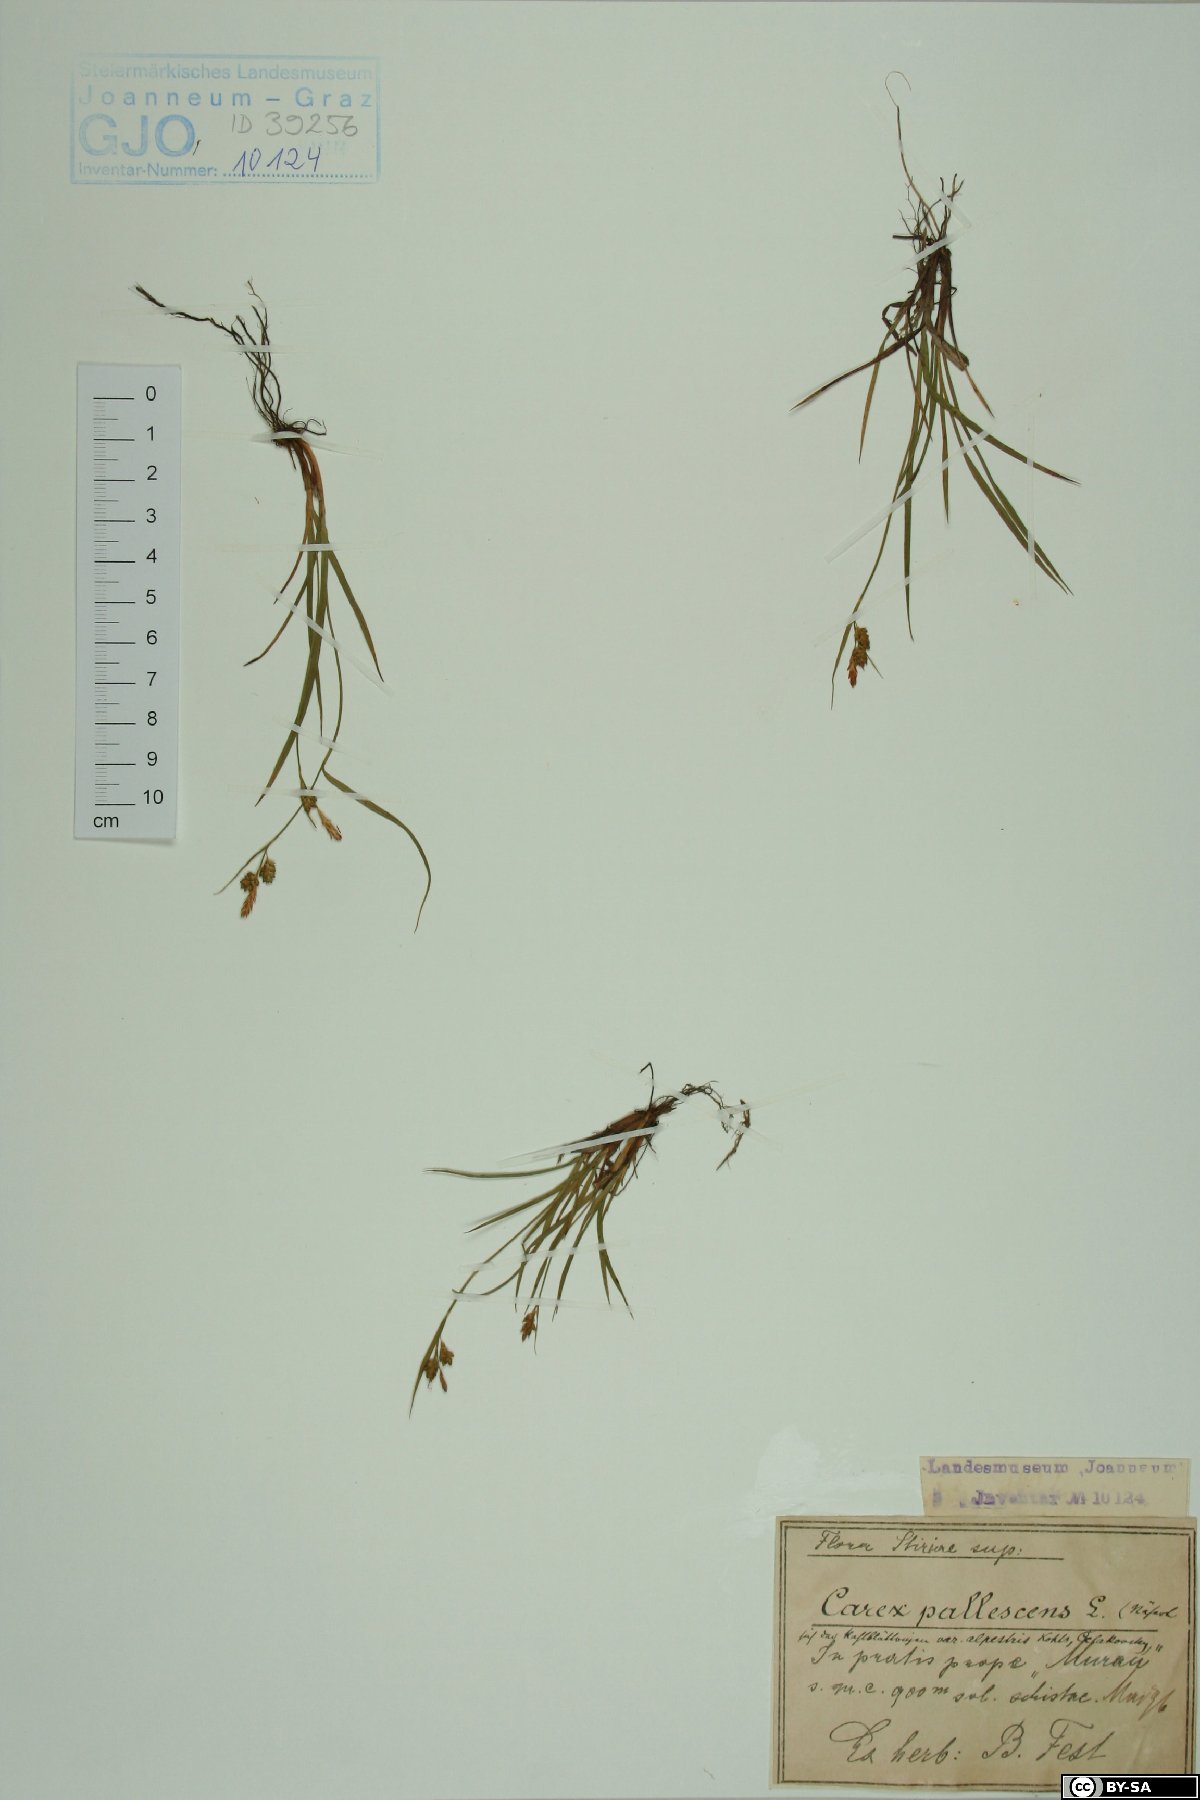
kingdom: Plantae
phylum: Tracheophyta
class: Liliopsida
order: Poales
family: Cyperaceae
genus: Carex
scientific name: Carex pallescens
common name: Pale sedge
